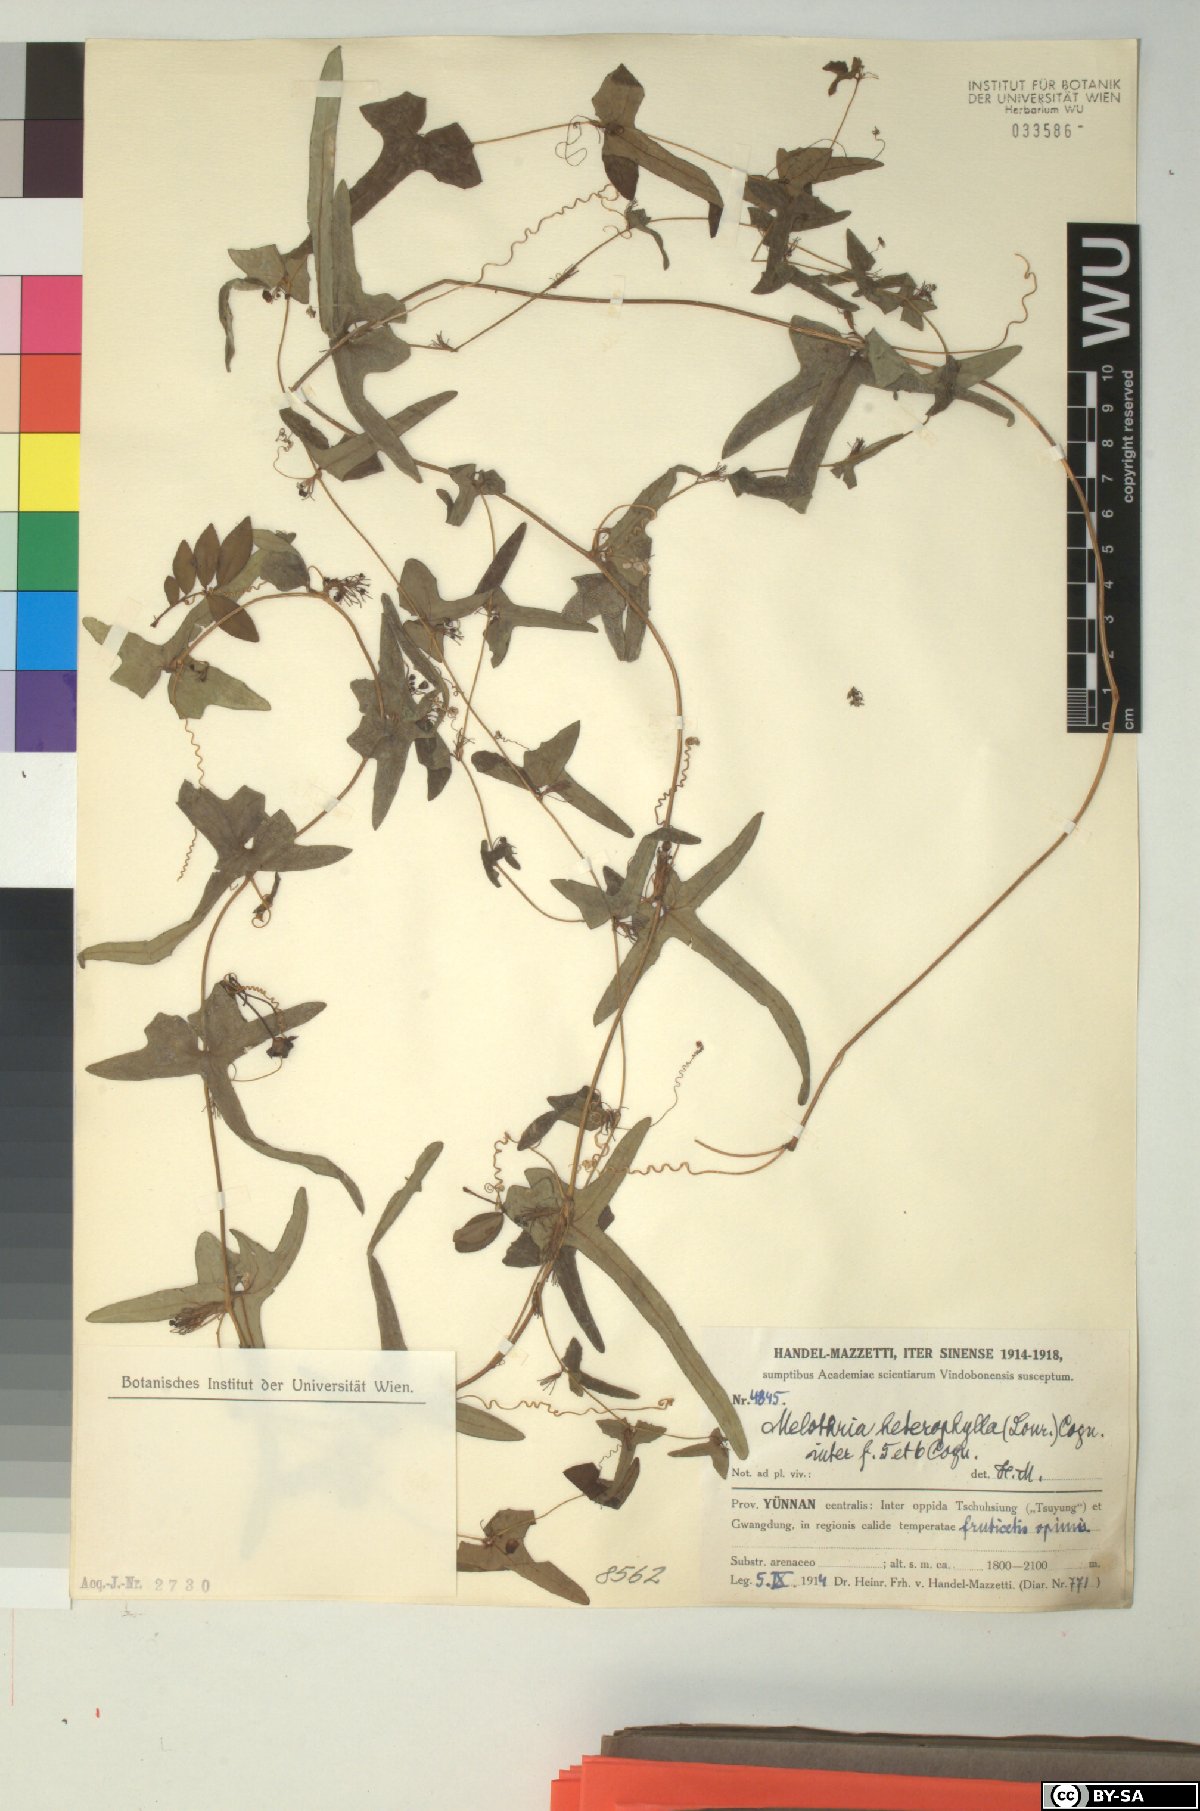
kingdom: Plantae
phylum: Tracheophyta
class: Magnoliopsida
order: Cucurbitales
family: Cucurbitaceae
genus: Melothria
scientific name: Melothria trilobata
